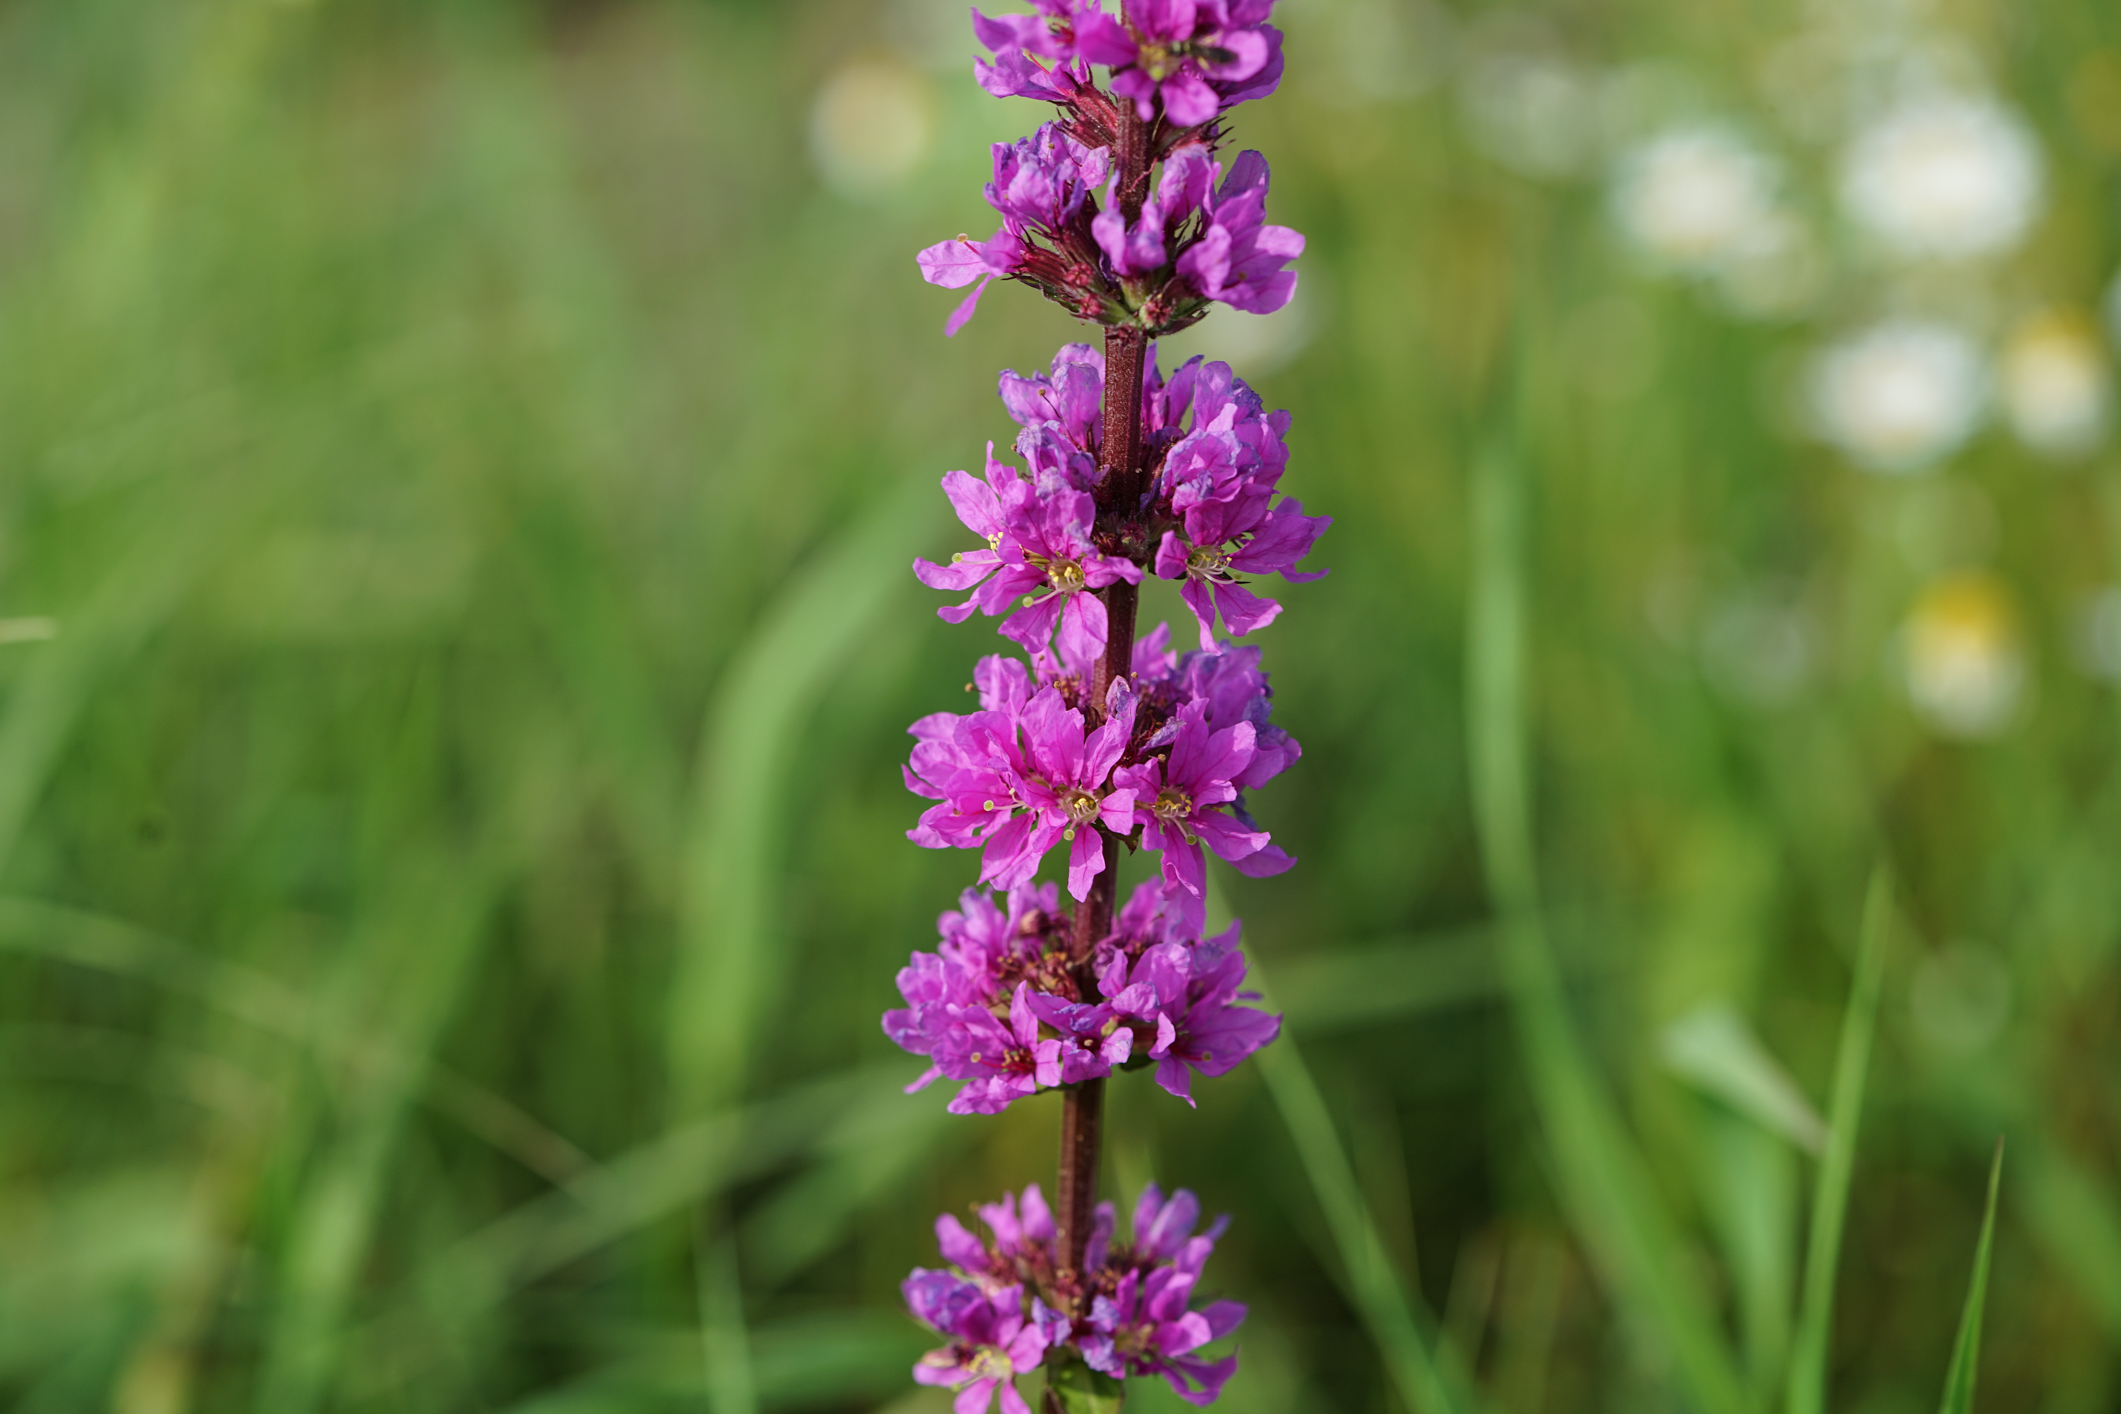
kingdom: Plantae
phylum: Tracheophyta
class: Magnoliopsida
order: Myrtales
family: Lythraceae
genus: Lythrum
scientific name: Lythrum salicaria
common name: Purple loosestrife
